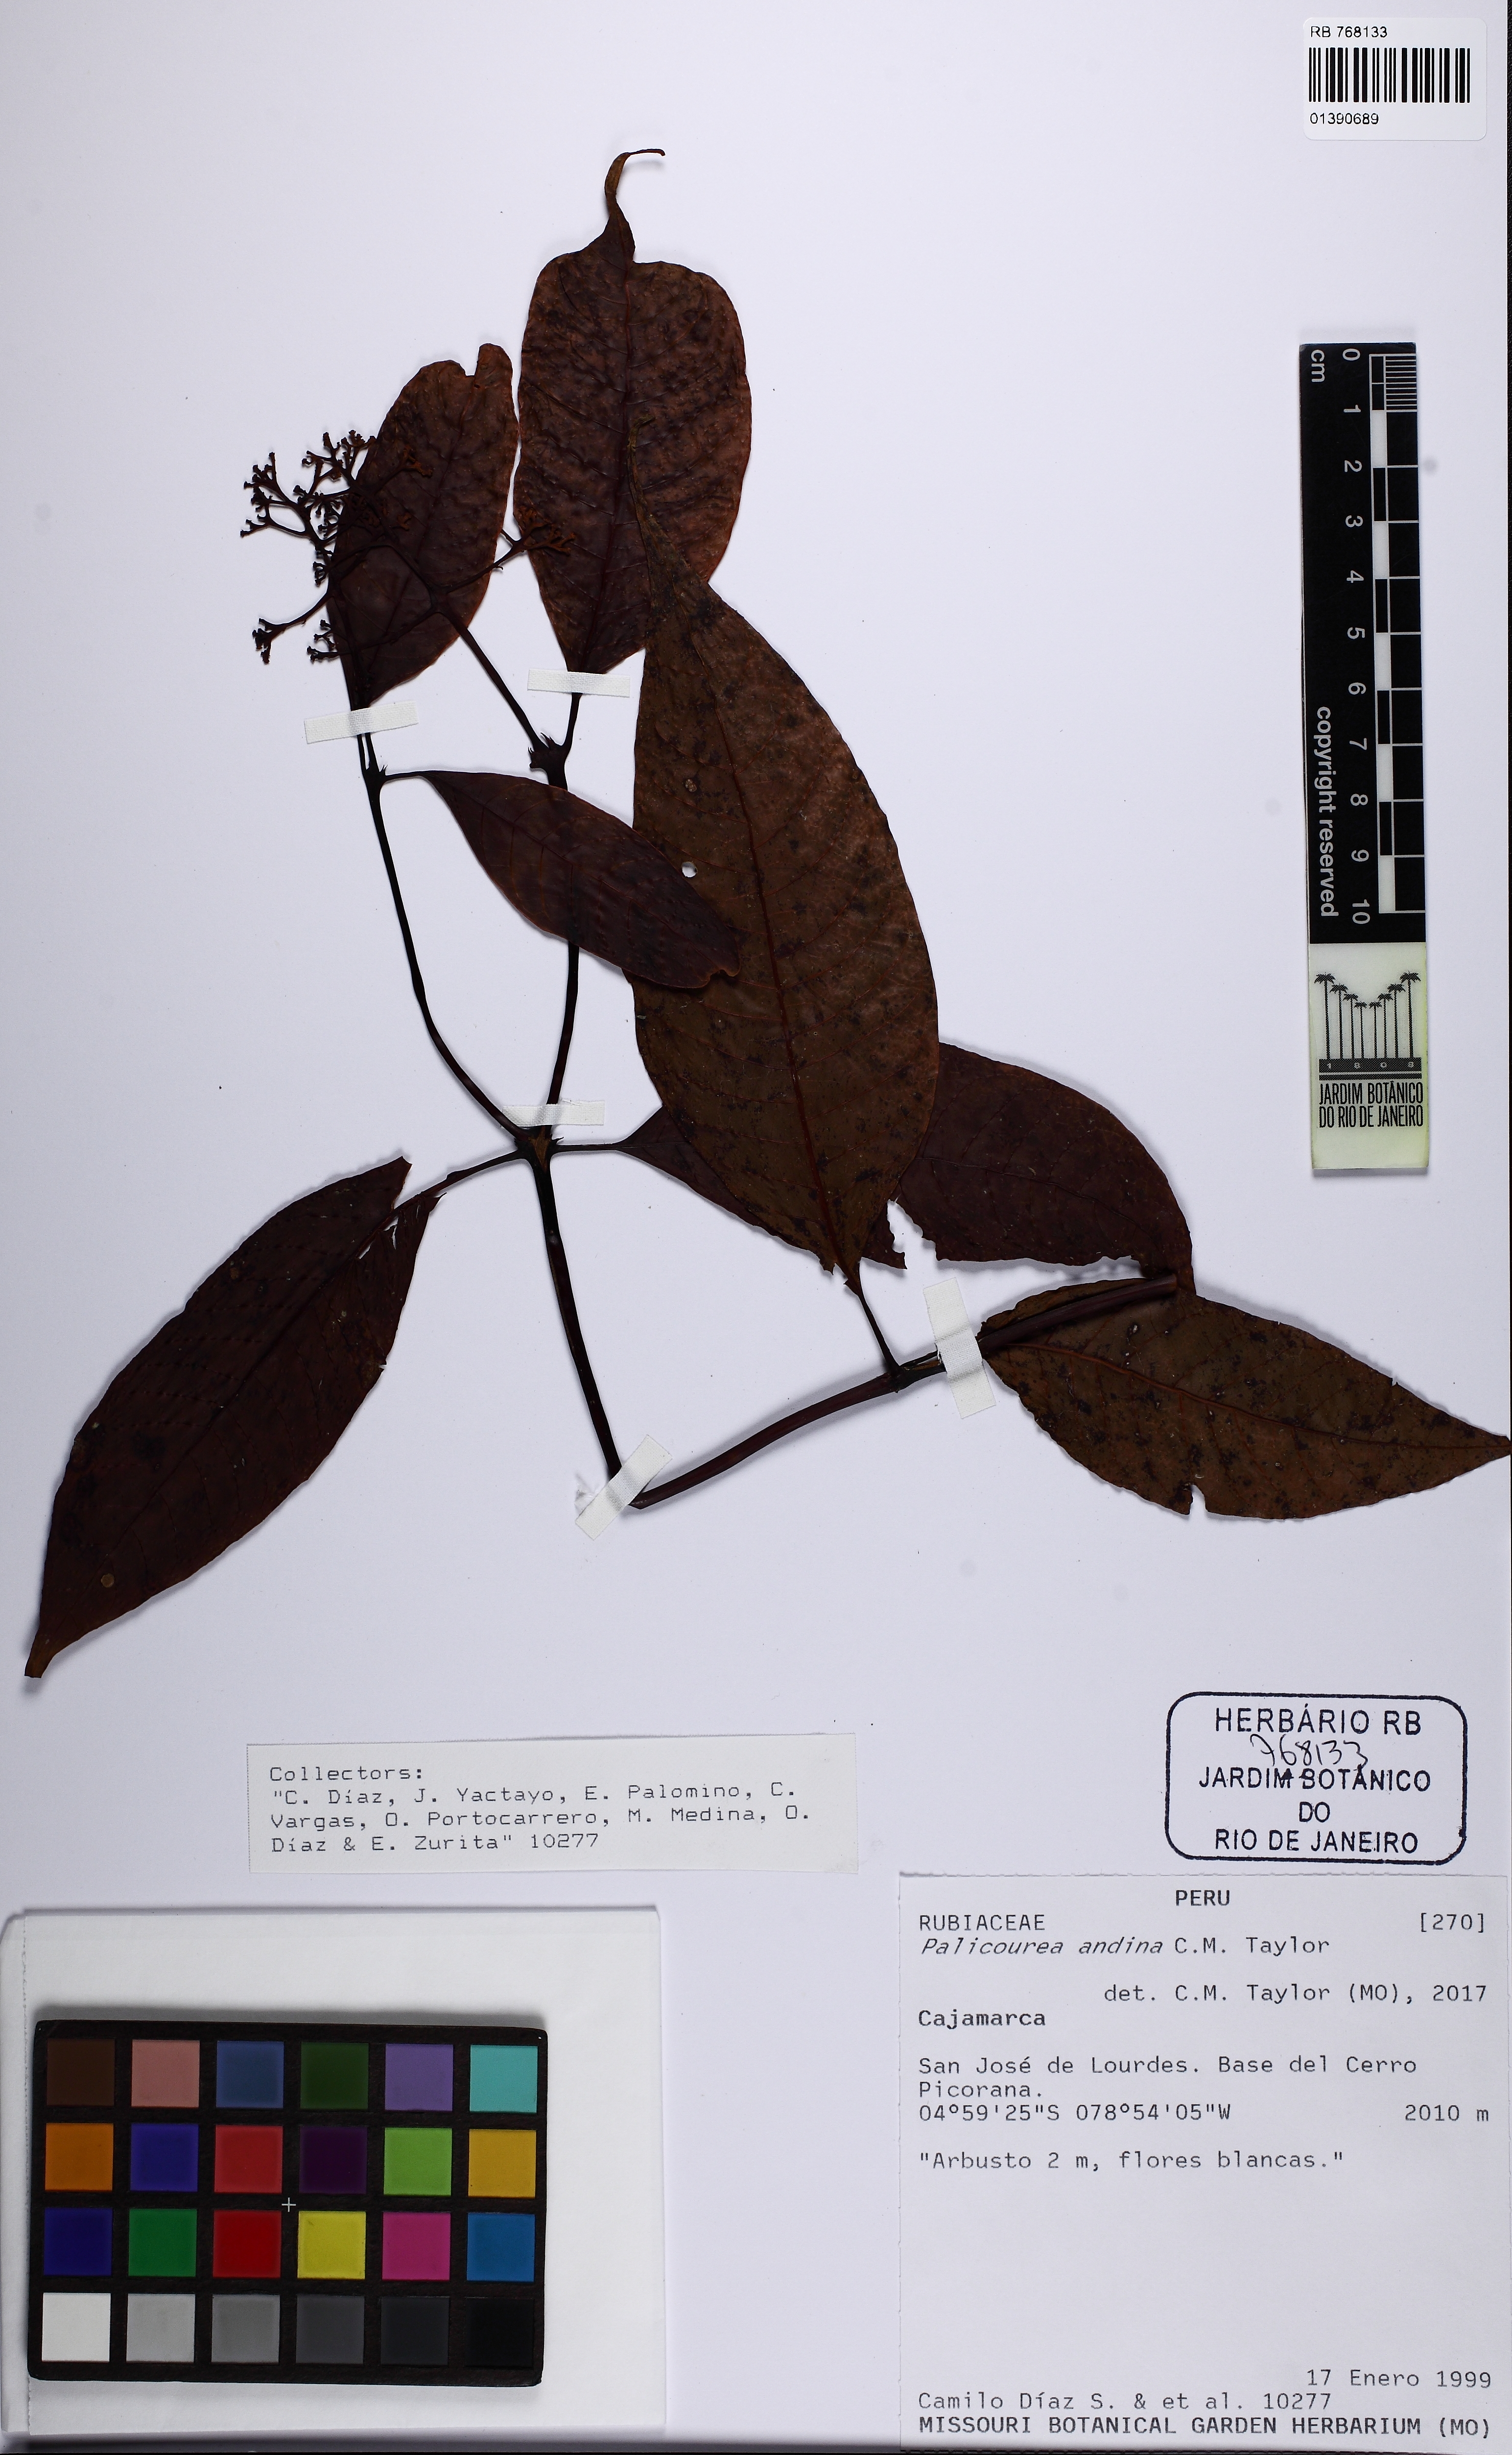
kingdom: Plantae
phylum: Tracheophyta
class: Magnoliopsida
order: Gentianales
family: Rubiaceae
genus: Palicourea
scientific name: Palicourea andina
